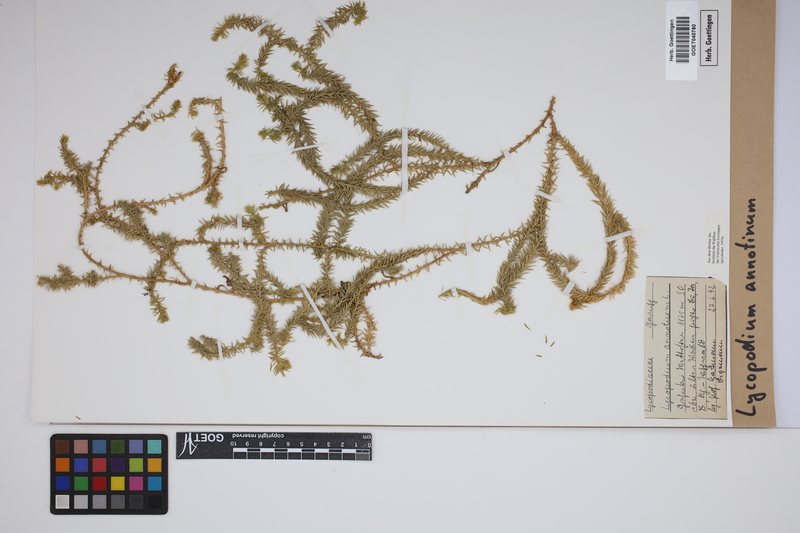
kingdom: Plantae
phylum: Tracheophyta
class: Lycopodiopsida
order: Lycopodiales
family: Lycopodiaceae
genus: Spinulum
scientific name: Spinulum annotinum
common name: Interrupted club-moss
